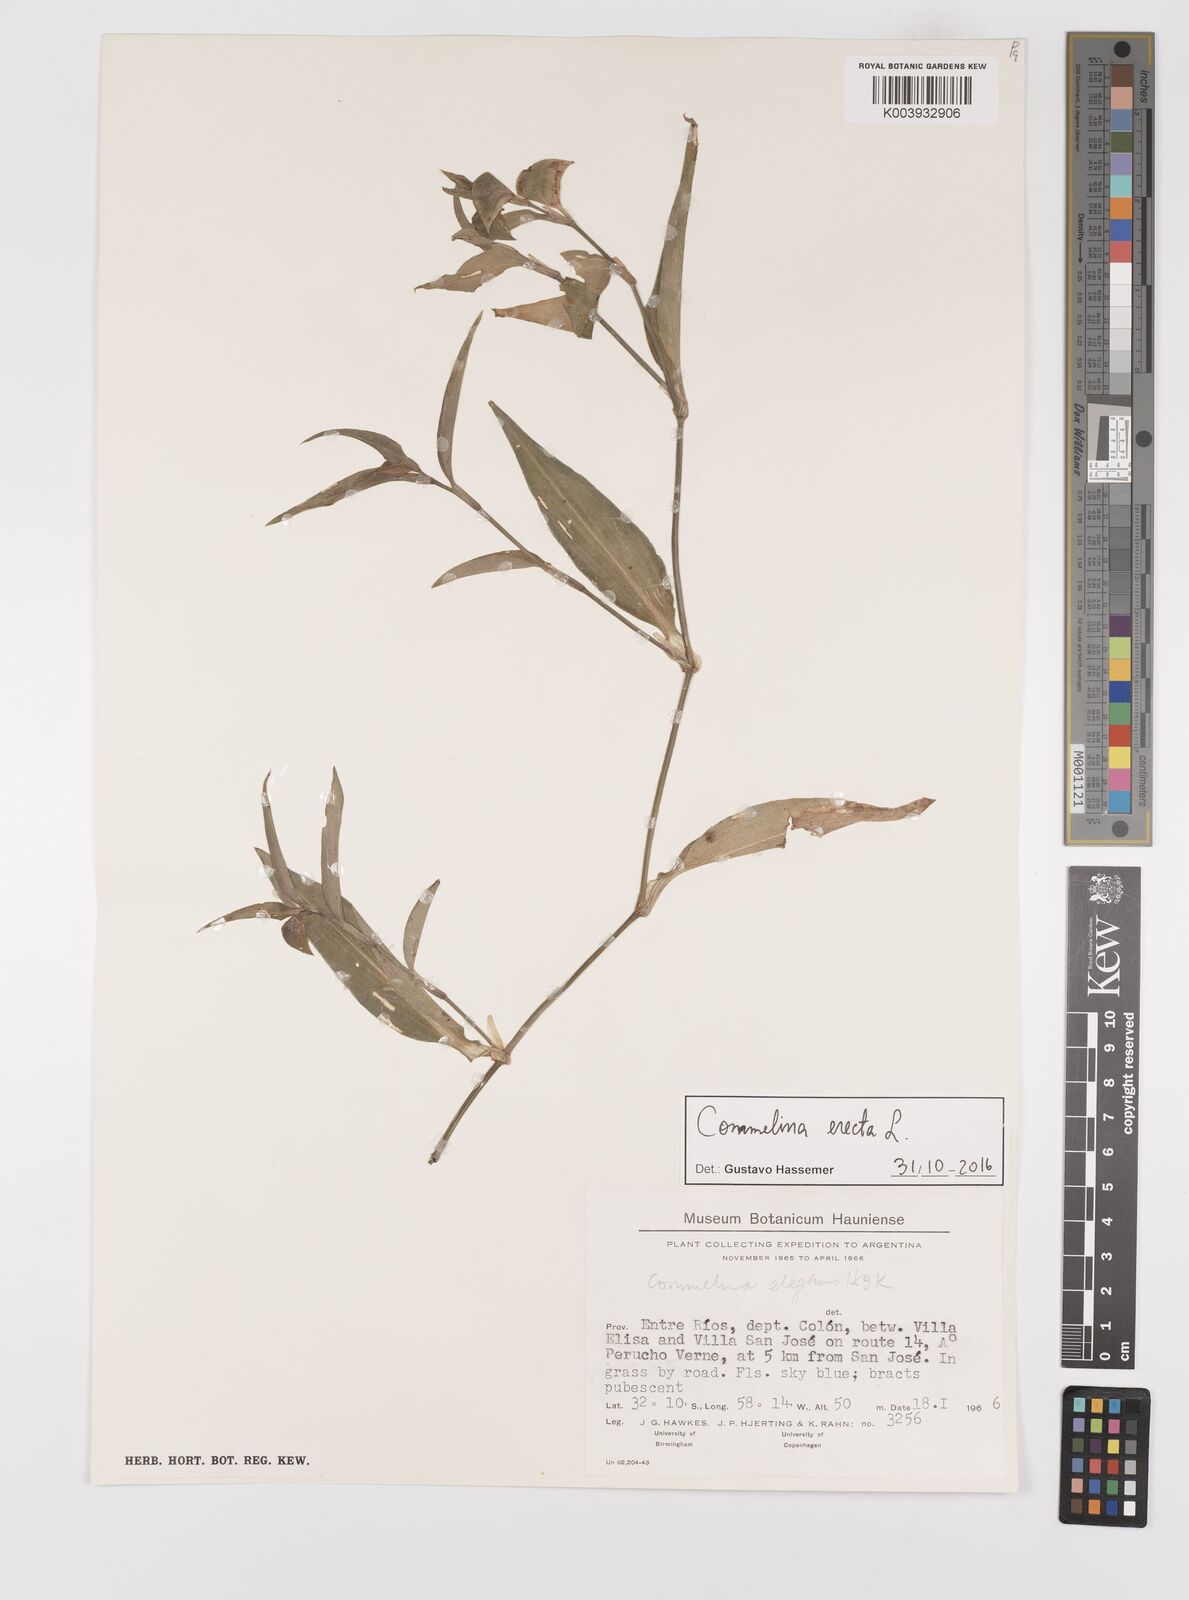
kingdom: Plantae
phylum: Tracheophyta
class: Liliopsida
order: Commelinales
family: Commelinaceae
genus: Commelina
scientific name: Commelina erecta
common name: Blousel blommetjie
